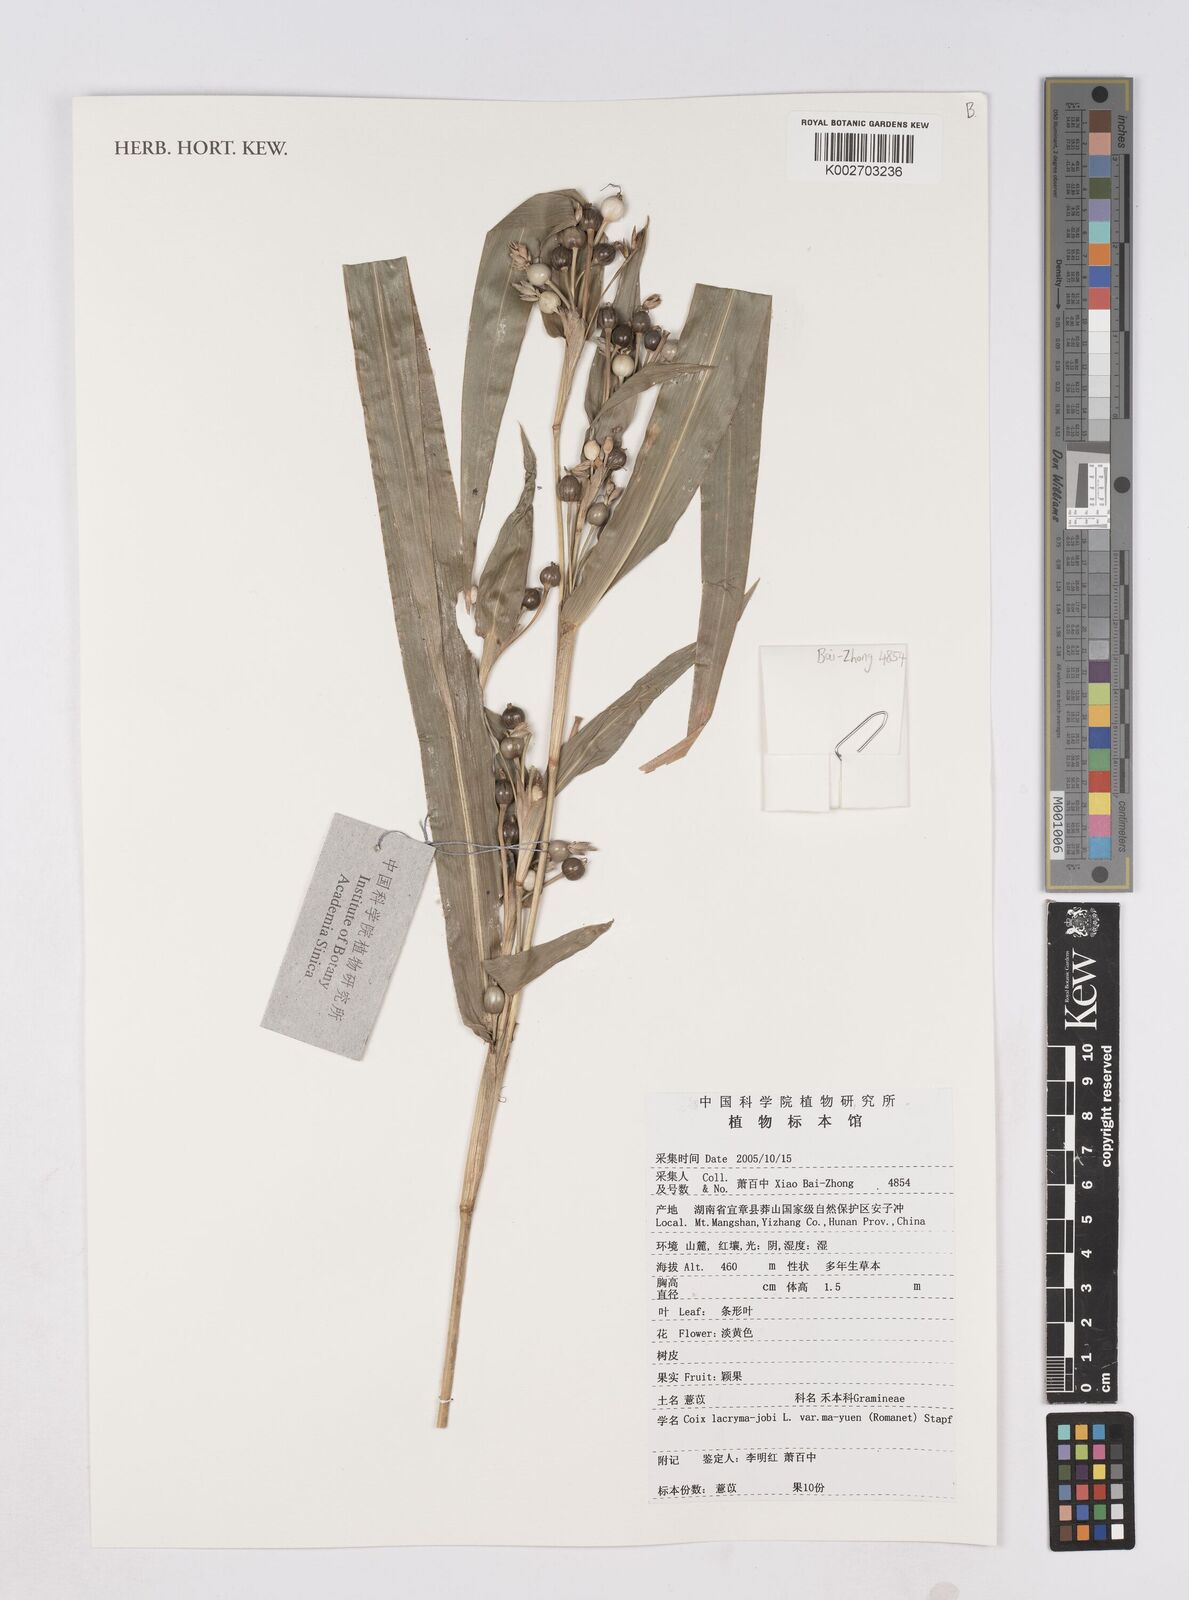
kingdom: Plantae
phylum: Tracheophyta
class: Liliopsida
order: Poales
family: Poaceae
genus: Coix
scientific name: Coix lacryma-jobi
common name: Job's tears
